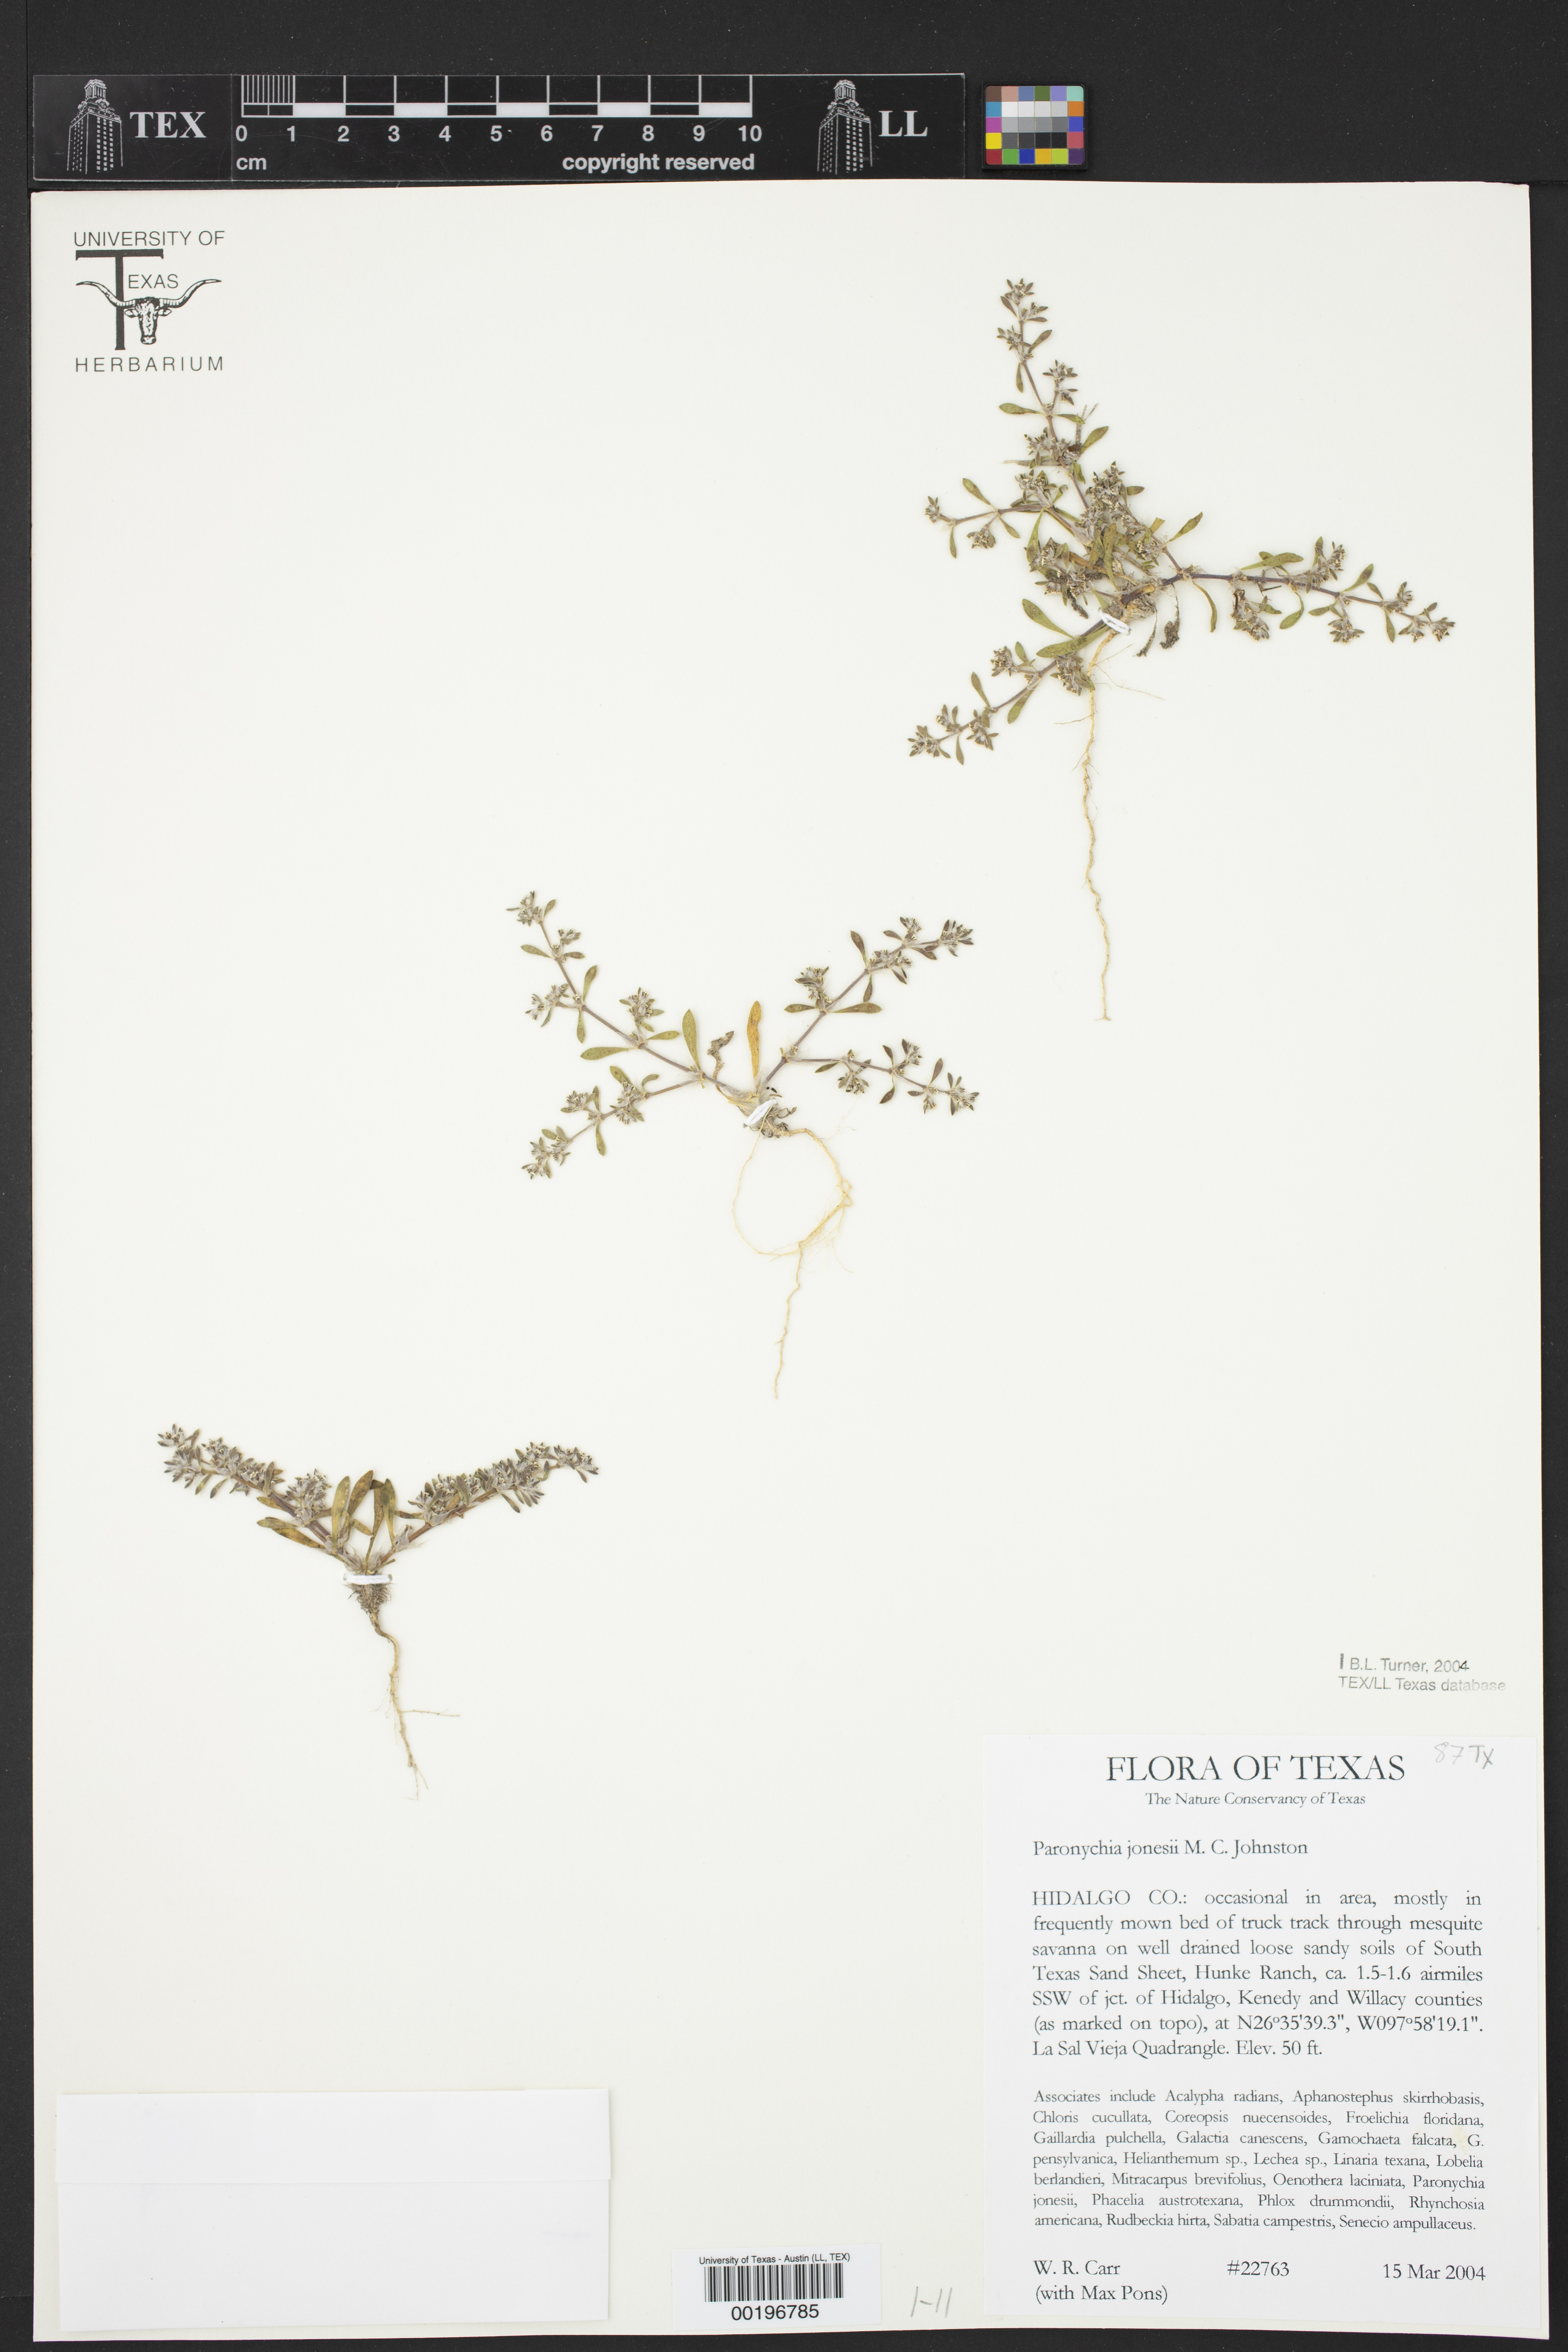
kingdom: Plantae
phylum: Tracheophyta
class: Magnoliopsida
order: Caryophyllales
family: Caryophyllaceae
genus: Paronychia
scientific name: Paronychia jonesii
